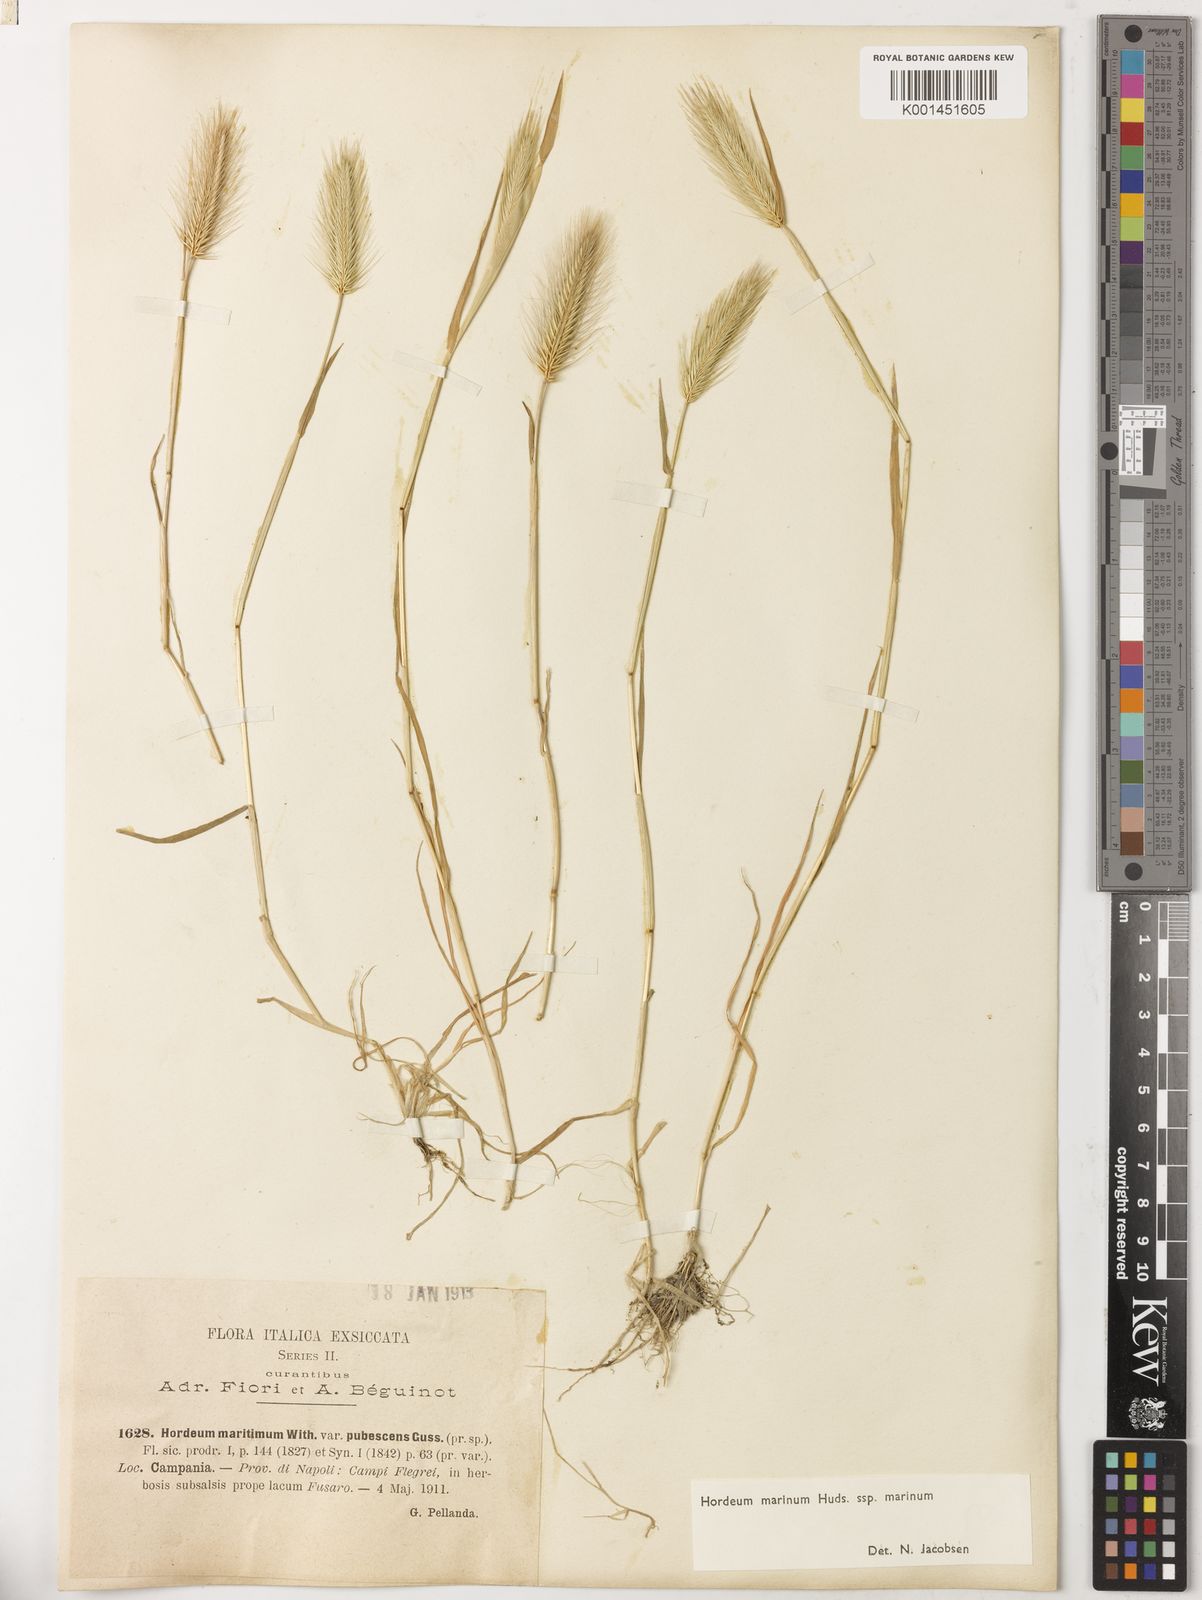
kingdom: Plantae
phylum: Tracheophyta
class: Liliopsida
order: Poales
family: Poaceae
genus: Hordeum
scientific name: Hordeum marinum
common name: Sea barley
